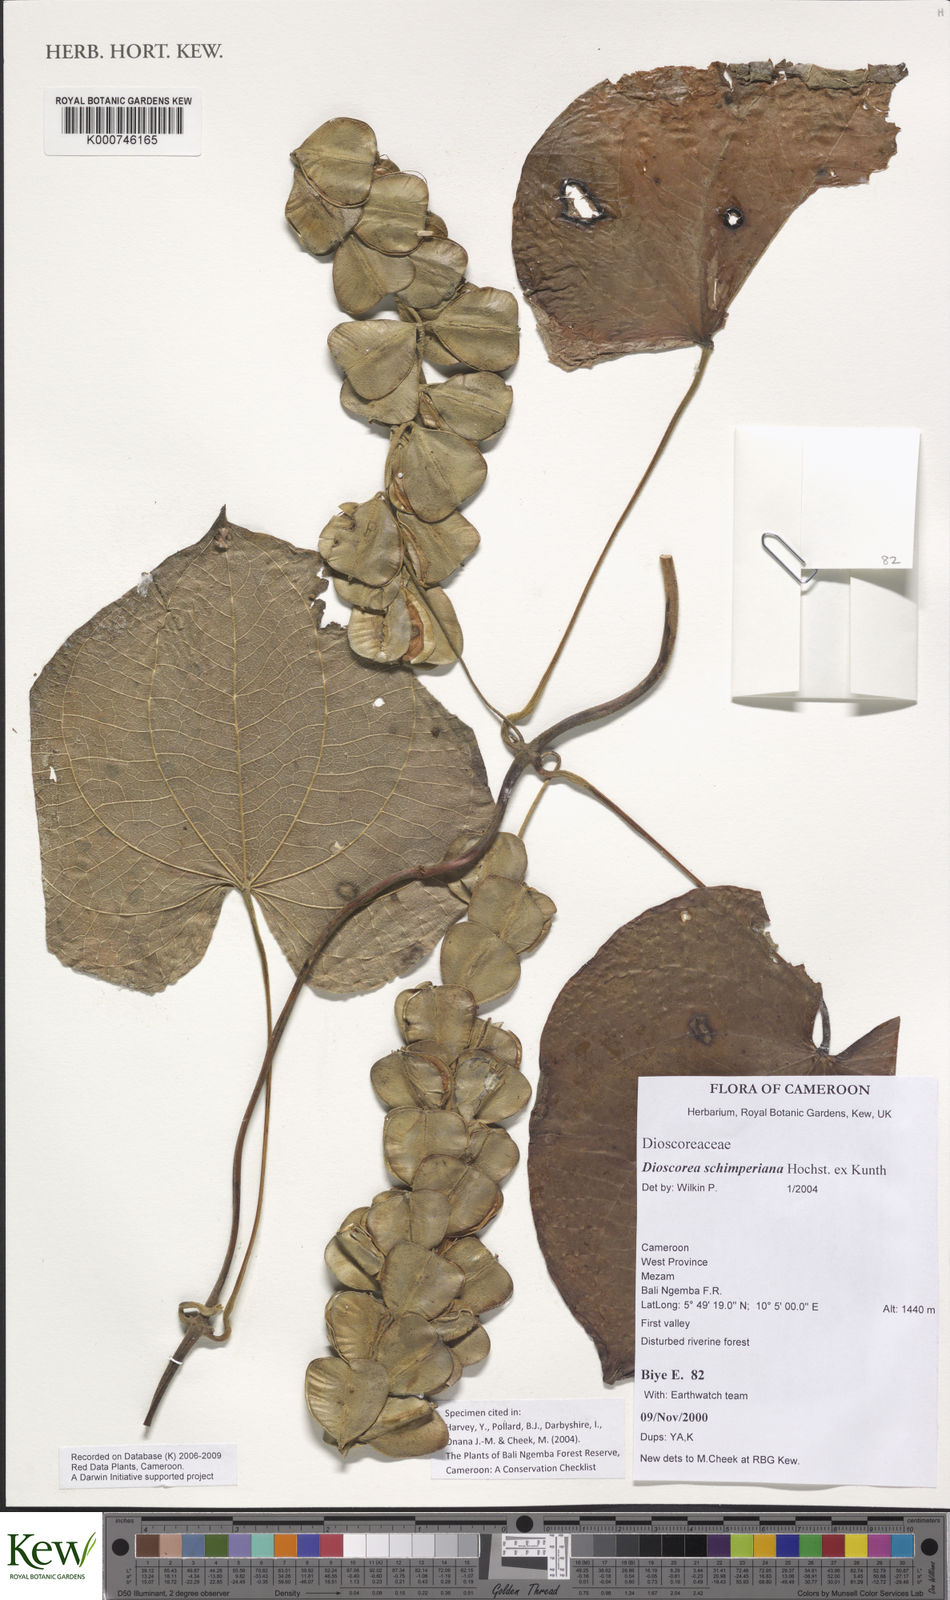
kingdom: Plantae
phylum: Tracheophyta
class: Liliopsida
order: Dioscoreales
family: Dioscoreaceae
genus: Dioscorea
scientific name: Dioscorea schimperiana
